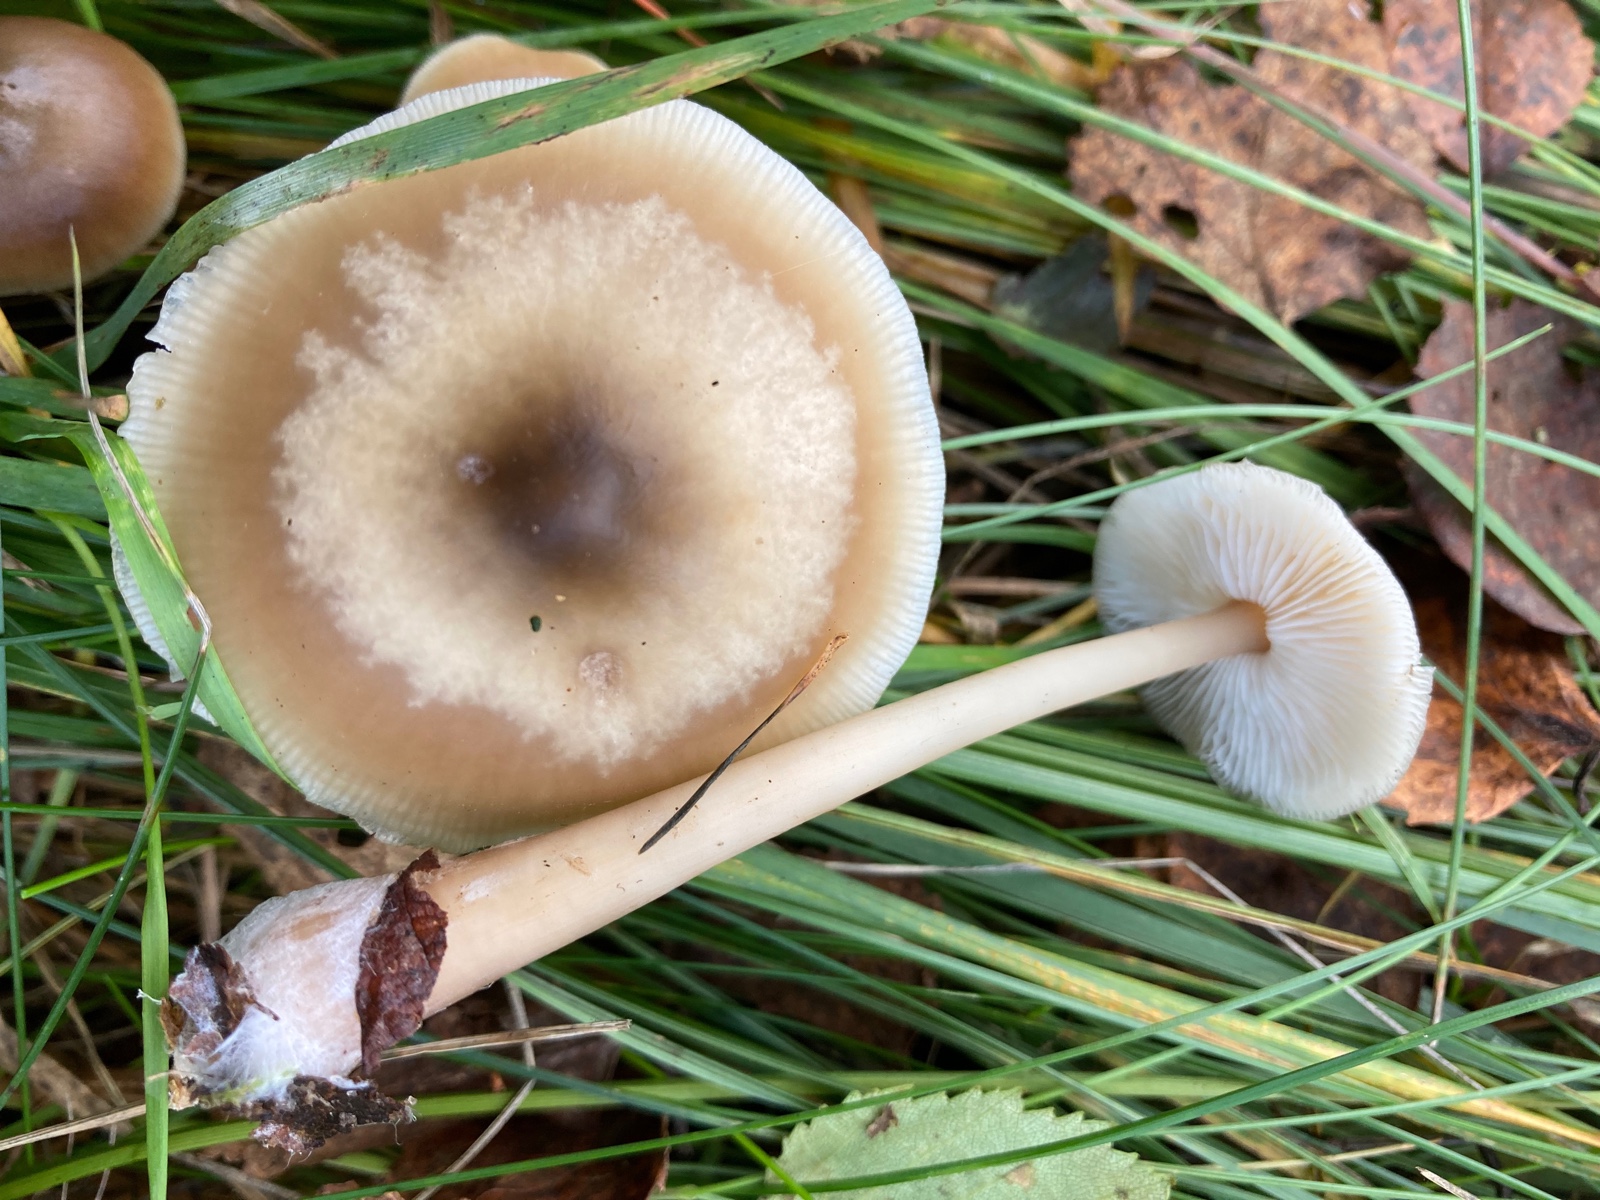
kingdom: Fungi
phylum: Basidiomycota
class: Agaricomycetes
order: Agaricales
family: Omphalotaceae
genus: Rhodocollybia
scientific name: Rhodocollybia asema
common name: horngrå fladhat
